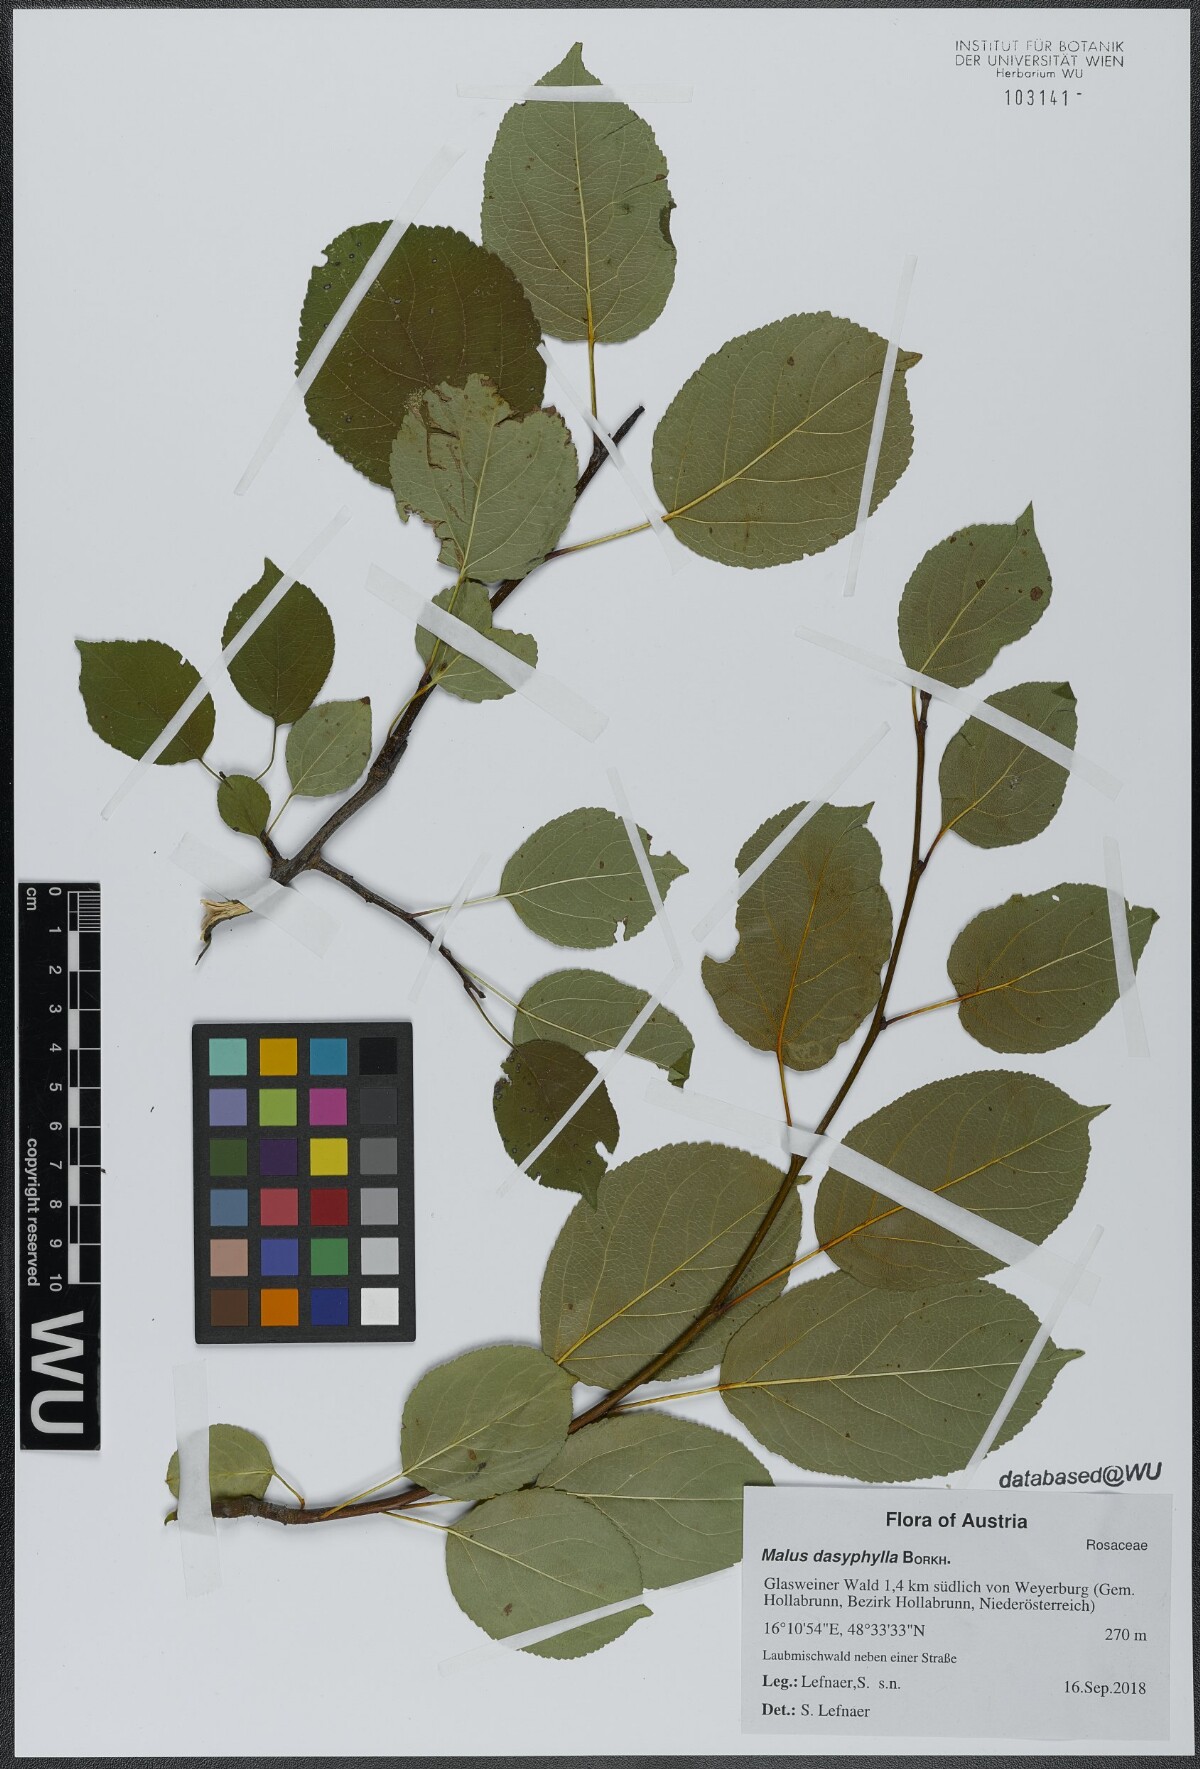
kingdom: Plantae
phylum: Tracheophyta
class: Magnoliopsida
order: Rosales
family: Rosaceae
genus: Malus
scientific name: Malus dasyphylla
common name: Paradise apple
